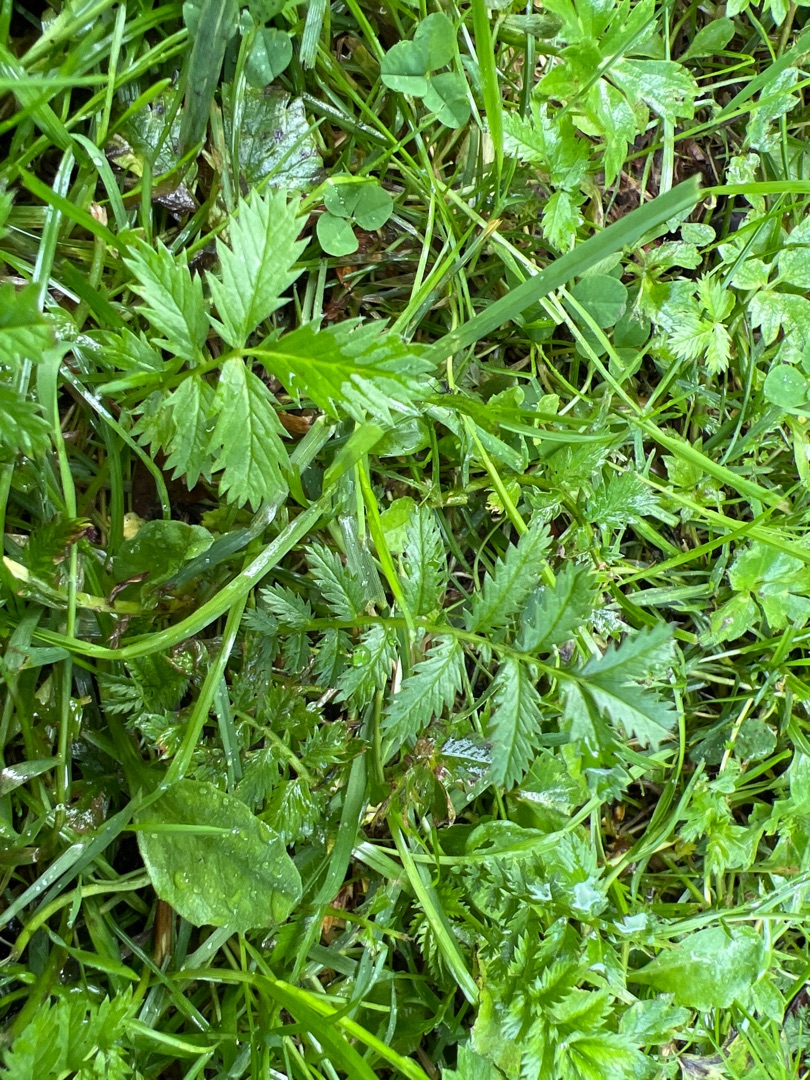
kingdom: Plantae
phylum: Tracheophyta
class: Magnoliopsida
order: Rosales
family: Rosaceae
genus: Argentina
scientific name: Argentina anserina
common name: Gåsepotentil
